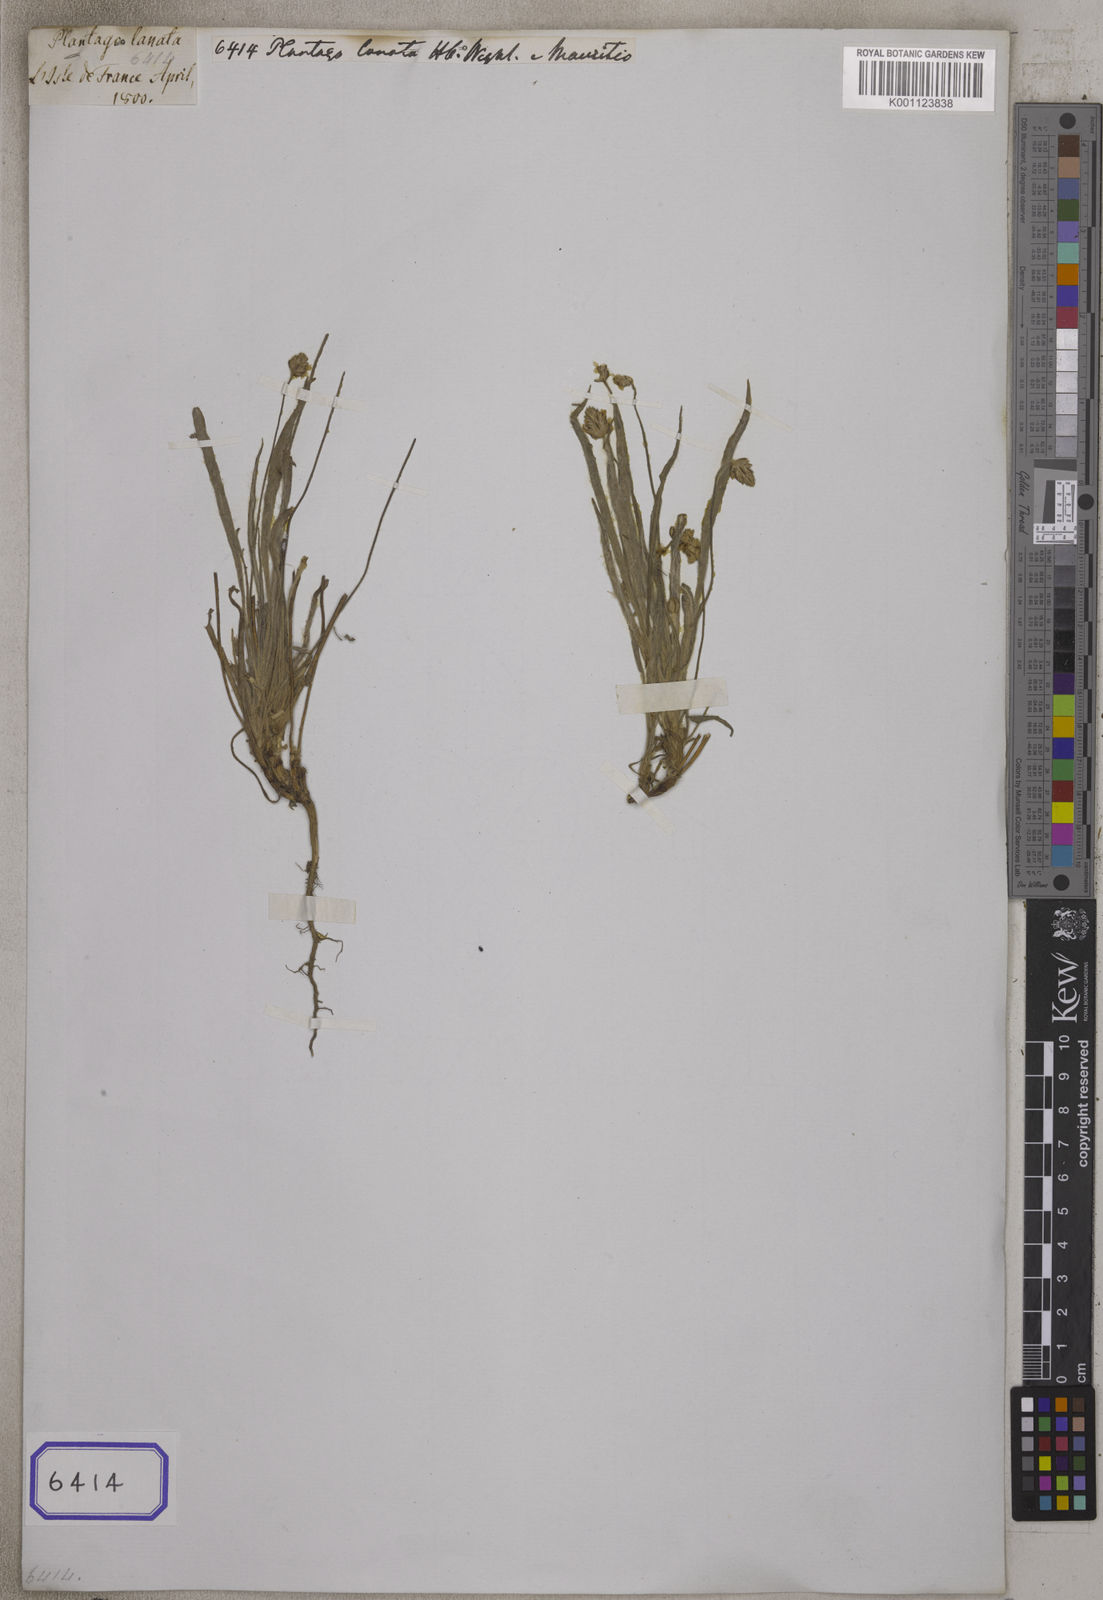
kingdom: Plantae
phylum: Tracheophyta
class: Magnoliopsida
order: Lamiales
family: Plantaginaceae
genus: Plantago
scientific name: Plantago
